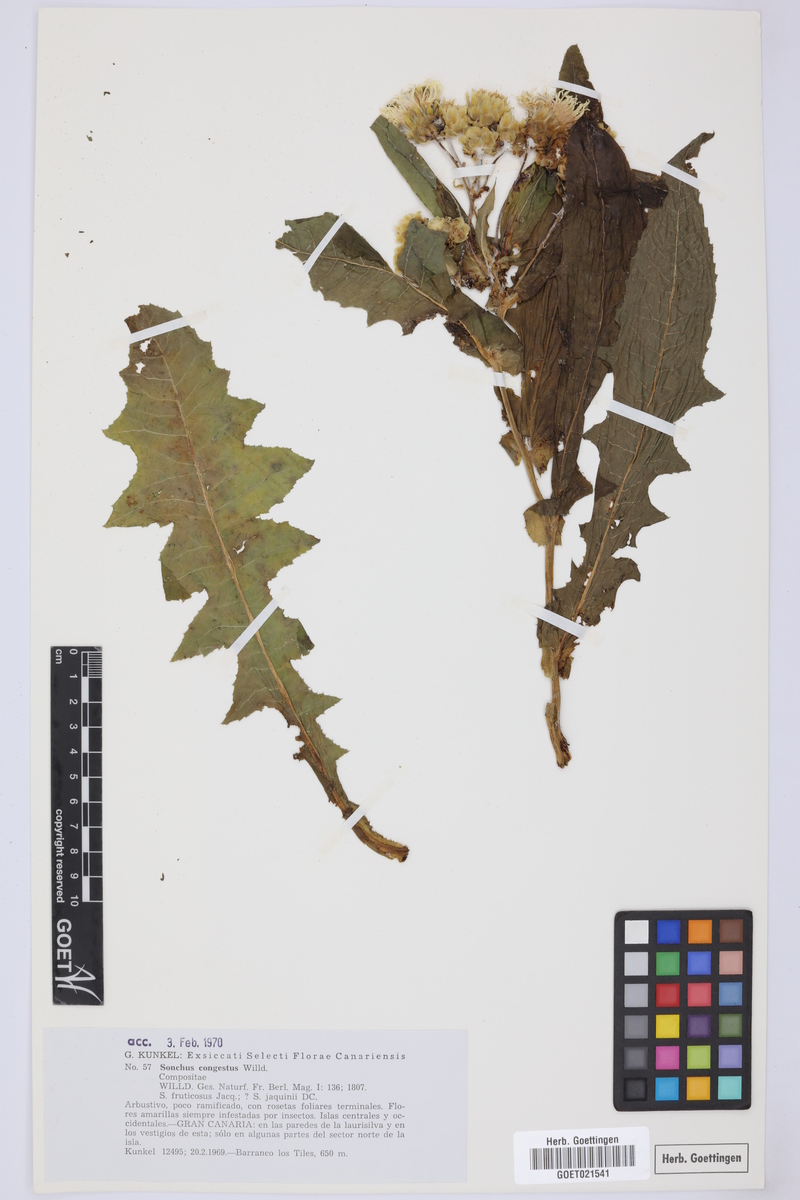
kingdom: Plantae
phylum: Tracheophyta
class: Magnoliopsida
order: Asterales
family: Asteraceae
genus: Sonchus
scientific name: Sonchus congestus
